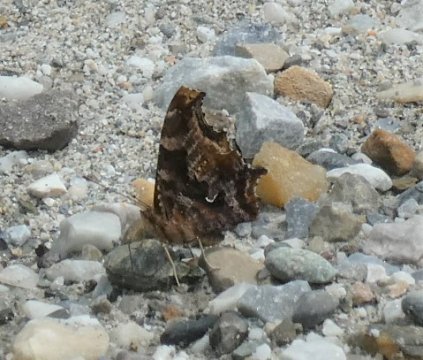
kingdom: Animalia
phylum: Arthropoda
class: Insecta
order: Lepidoptera
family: Nymphalidae
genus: Polygonia
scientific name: Polygonia comma
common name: Eastern Comma
